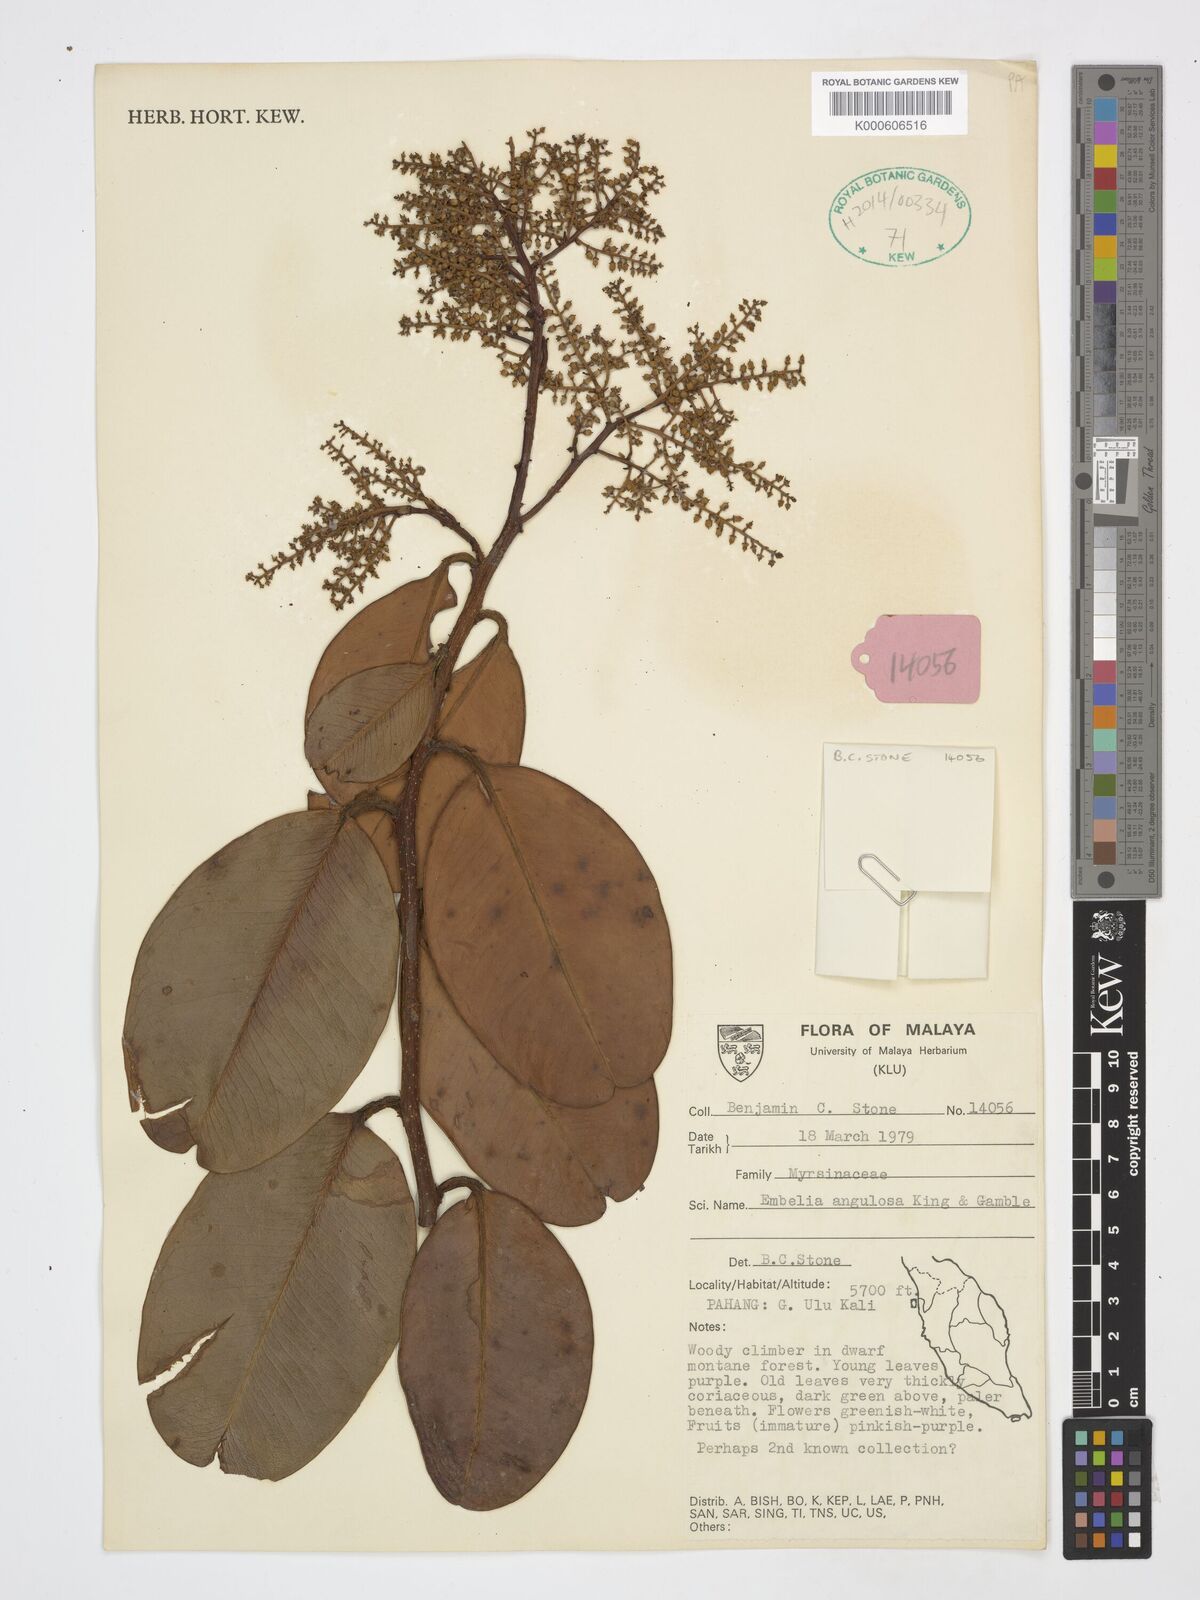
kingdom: Plantae
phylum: Tracheophyta
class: Magnoliopsida
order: Ericales
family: Primulaceae
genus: Embelia
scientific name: Embelia angulosa
